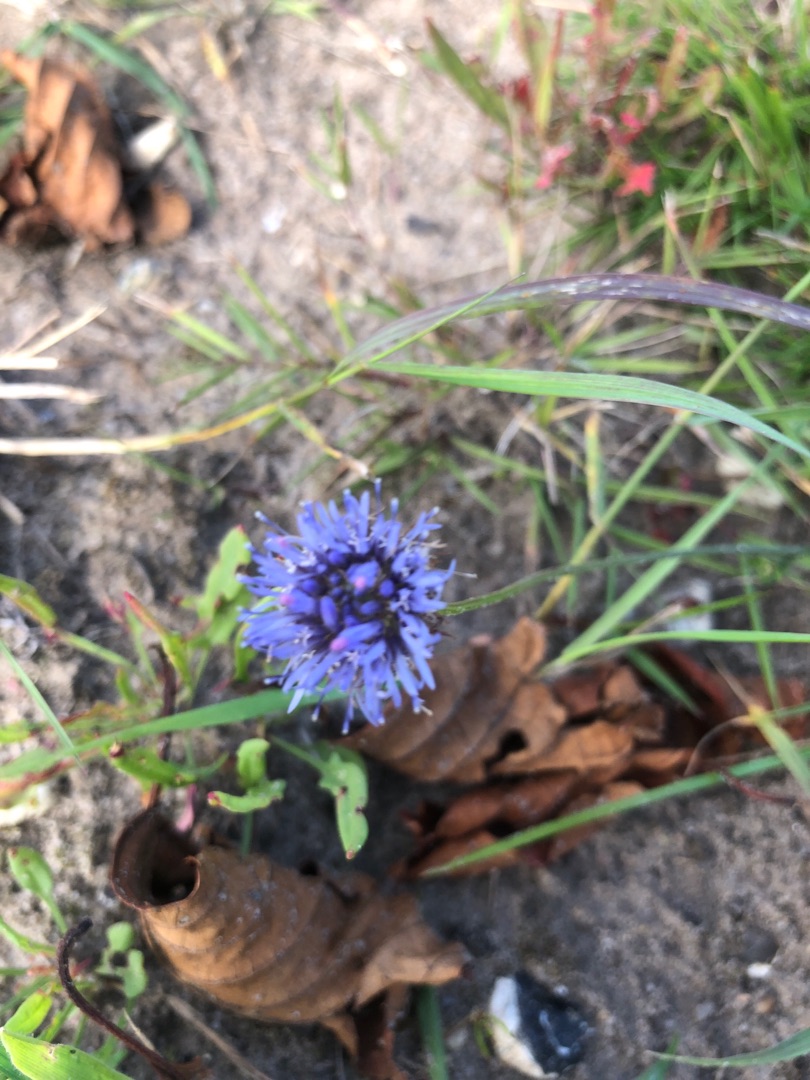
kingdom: Plantae
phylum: Tracheophyta
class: Magnoliopsida
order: Asterales
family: Campanulaceae
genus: Jasione
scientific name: Jasione montana
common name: Blåmunke
